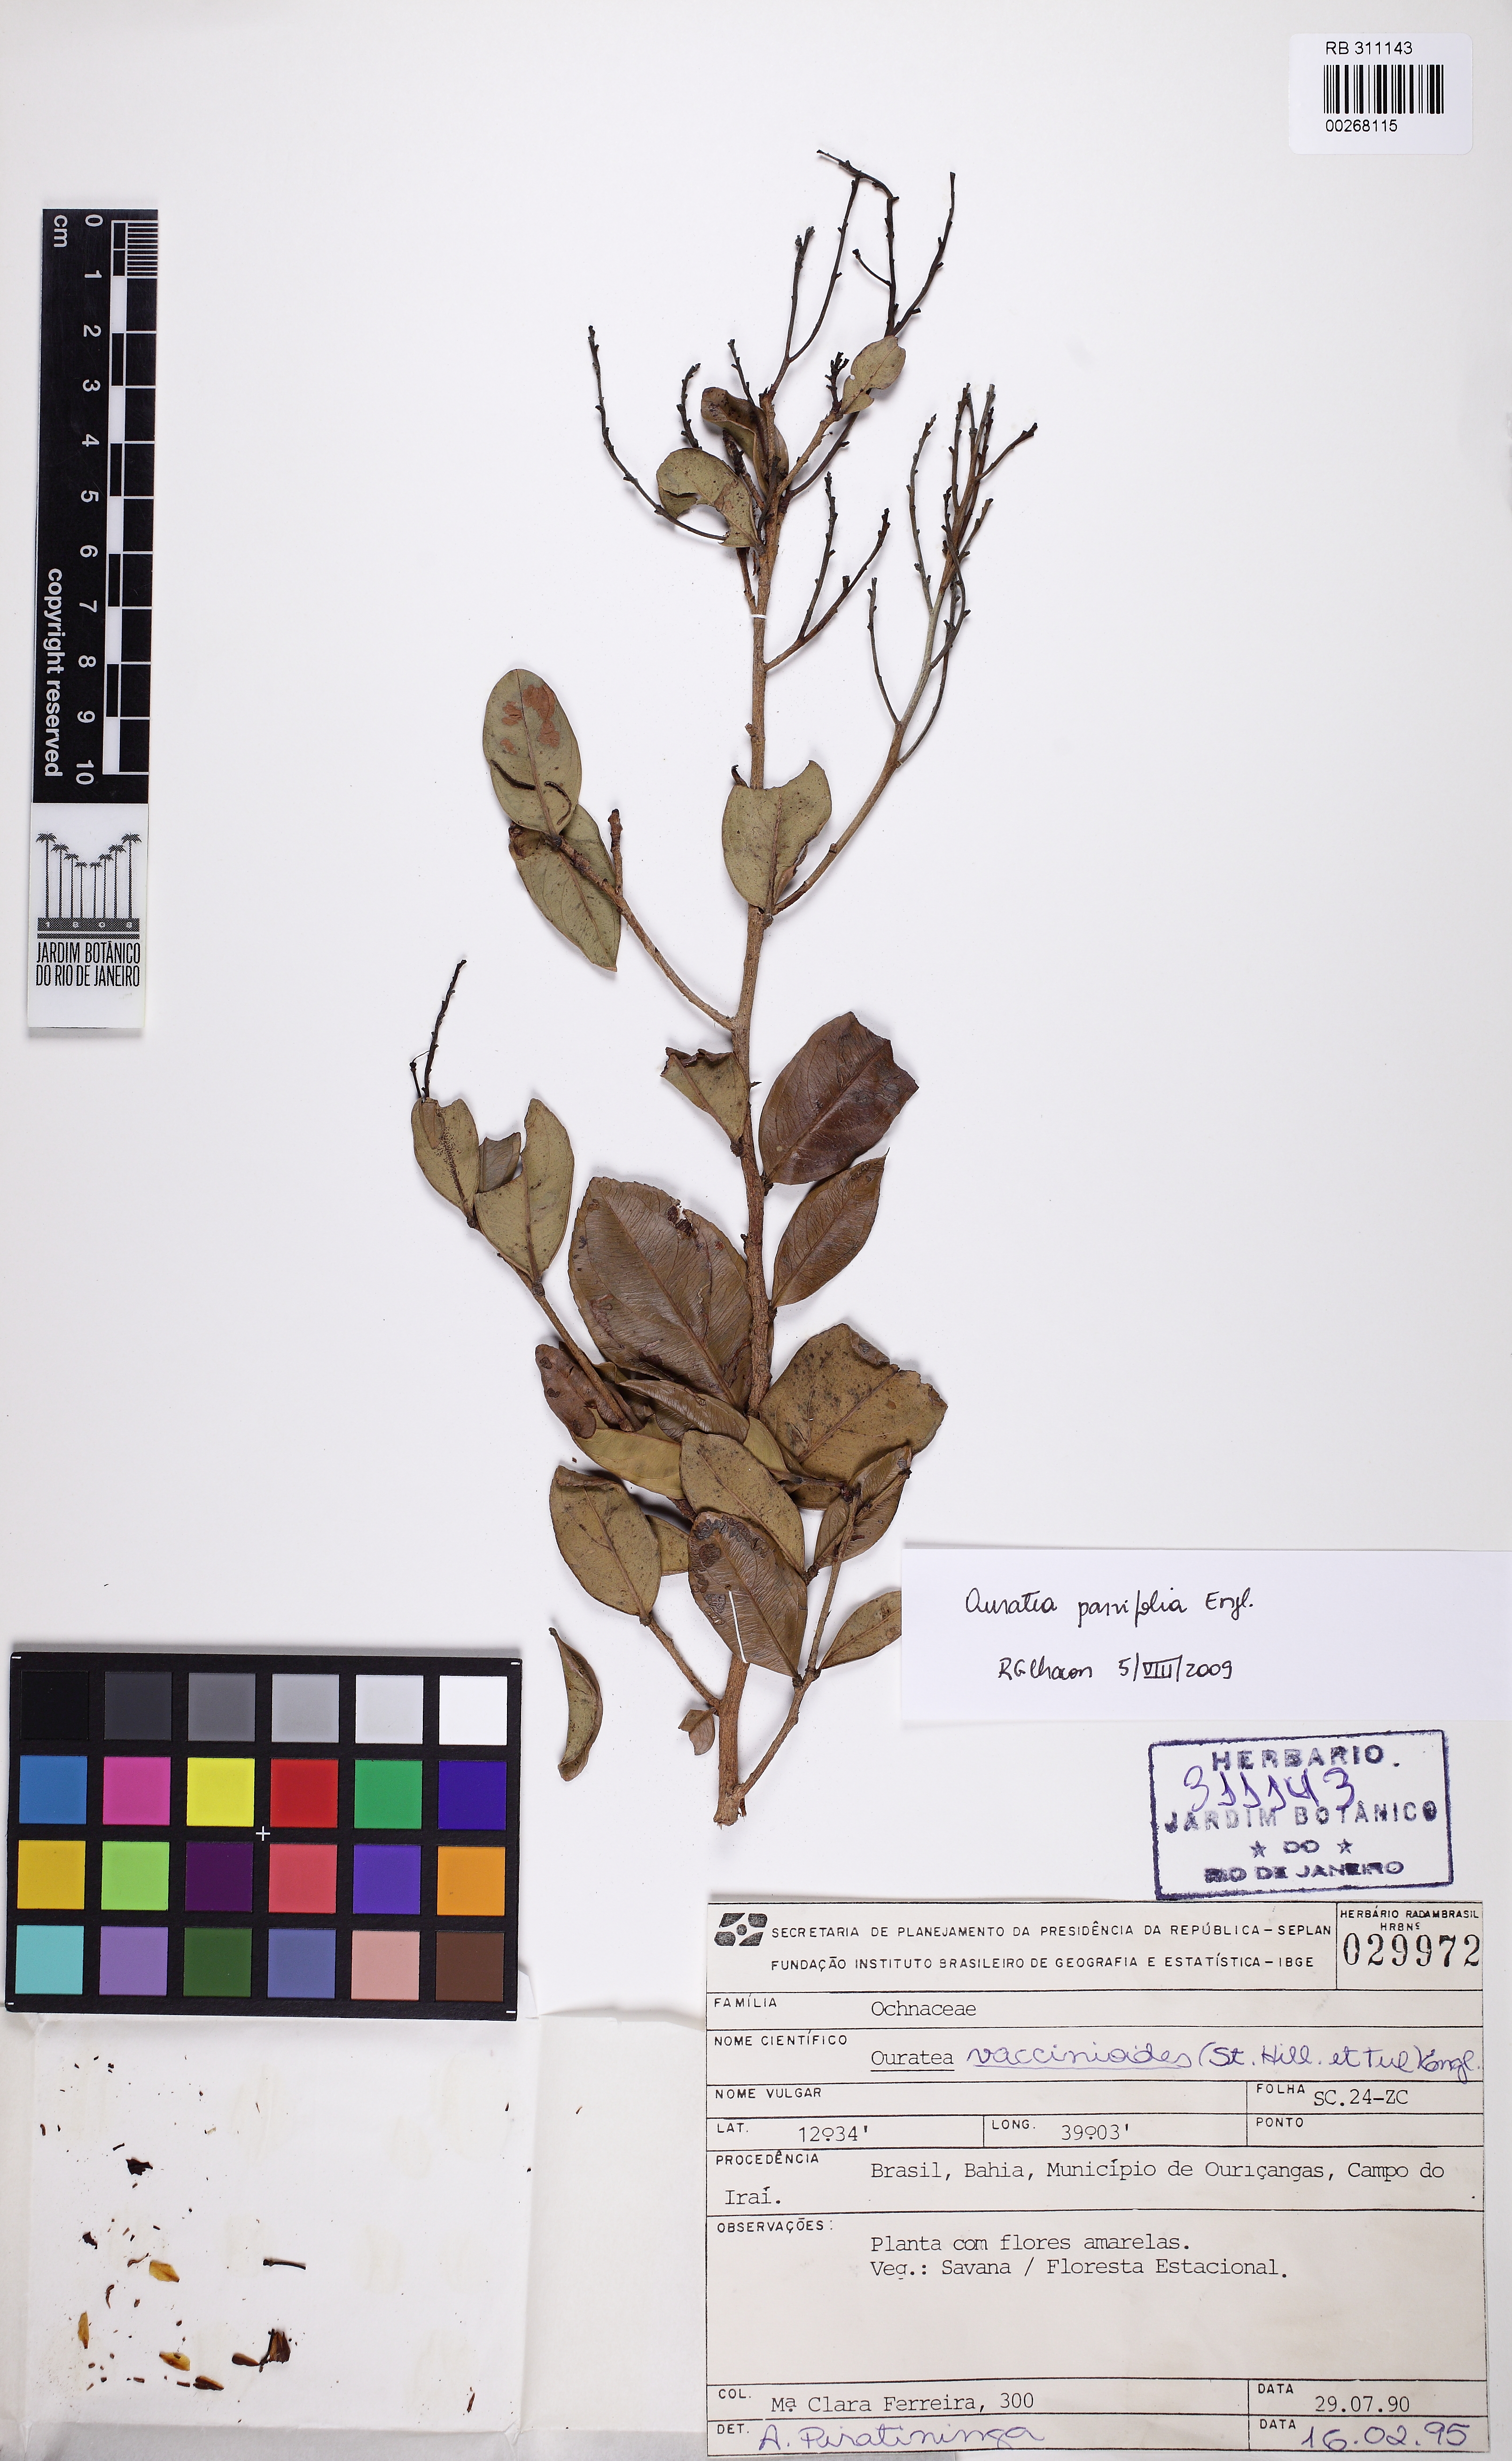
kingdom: Plantae
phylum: Tracheophyta
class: Magnoliopsida
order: Malpighiales
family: Ochnaceae
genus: Ouratea
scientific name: Ouratea parvifolia
